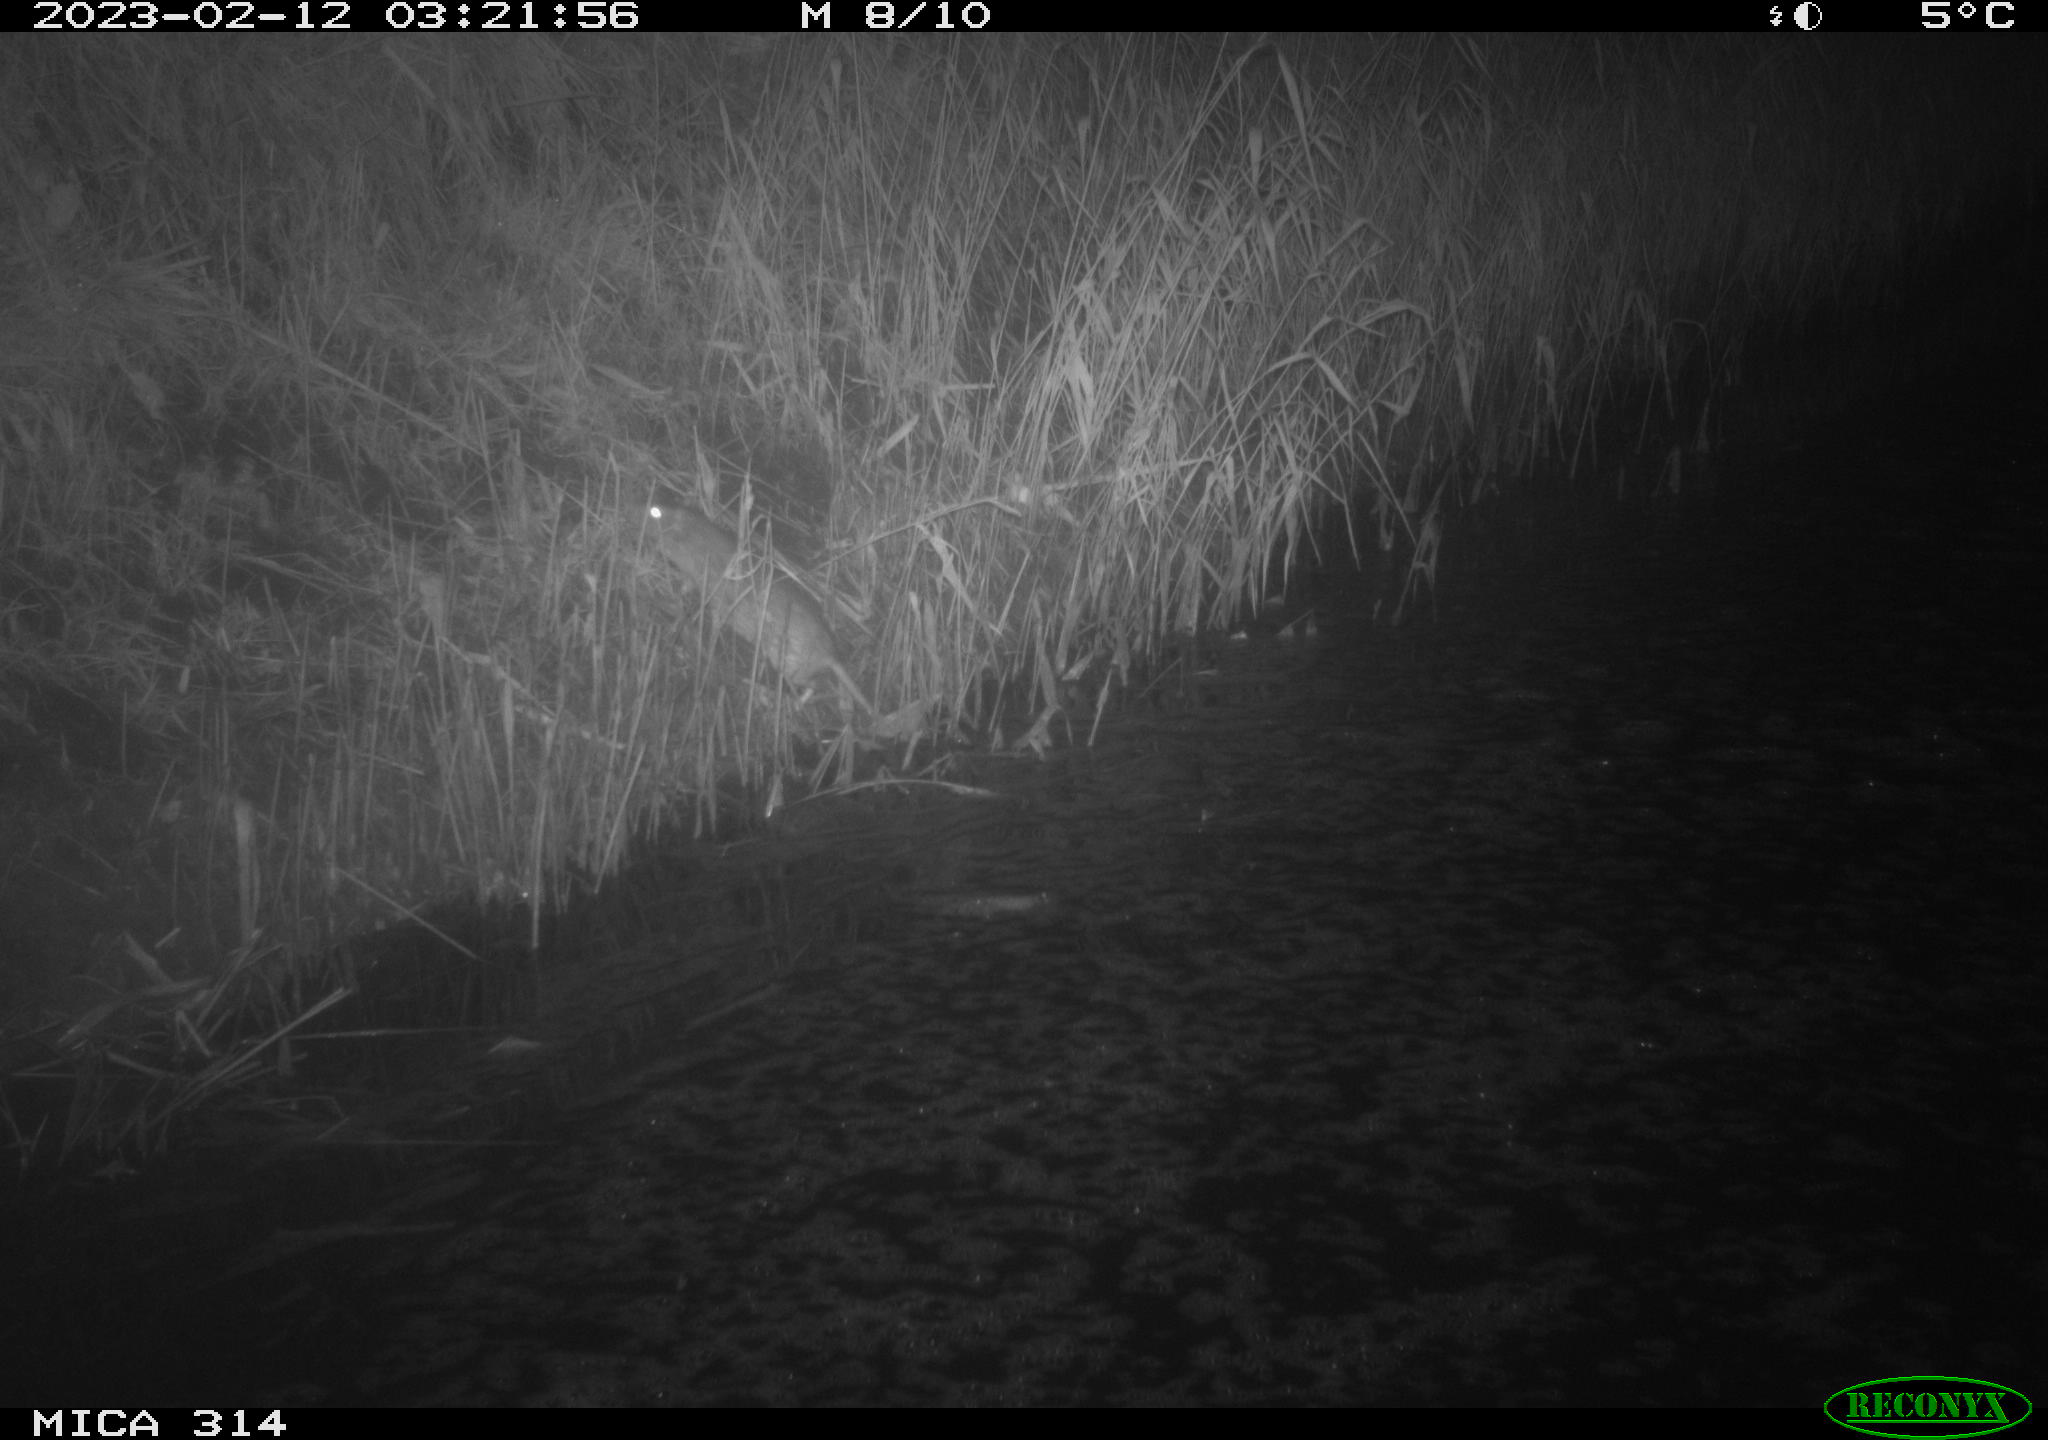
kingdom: Animalia
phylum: Chordata
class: Mammalia
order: Rodentia
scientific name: Rodentia
